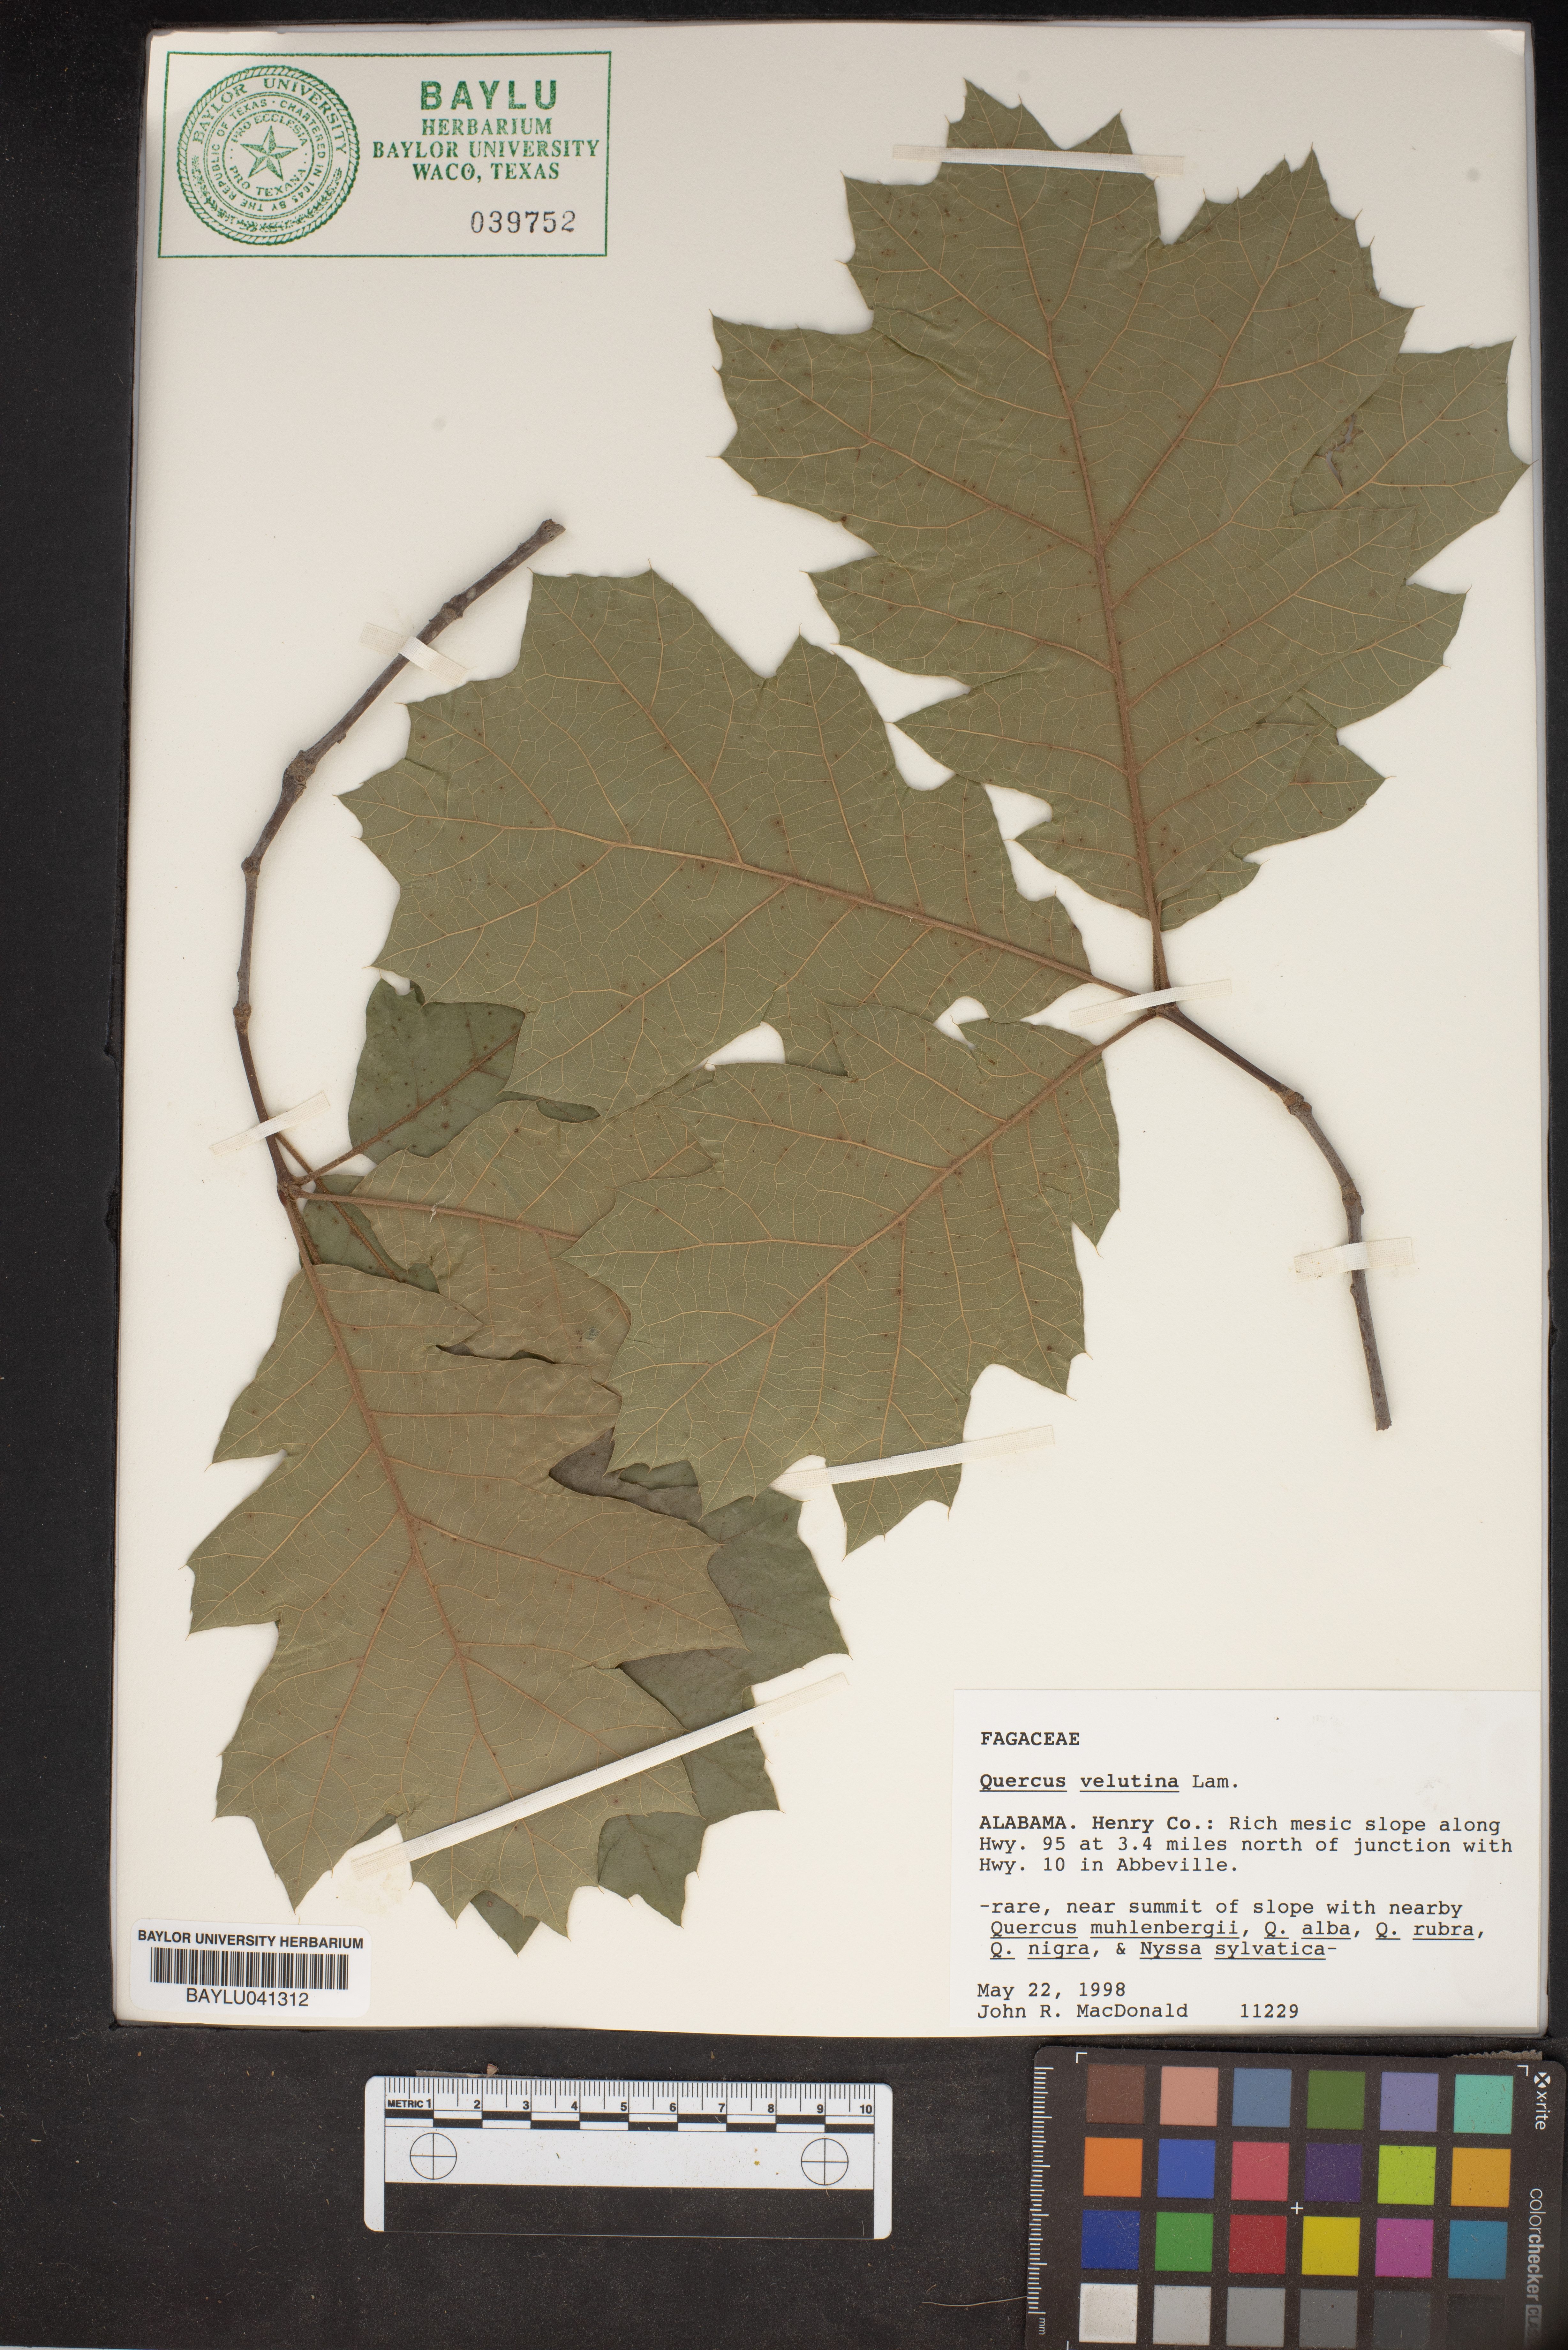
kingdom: Plantae
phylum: Tracheophyta
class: Magnoliopsida
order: Fagales
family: Fagaceae
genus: Quercus
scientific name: Quercus velutina
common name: Black oak
